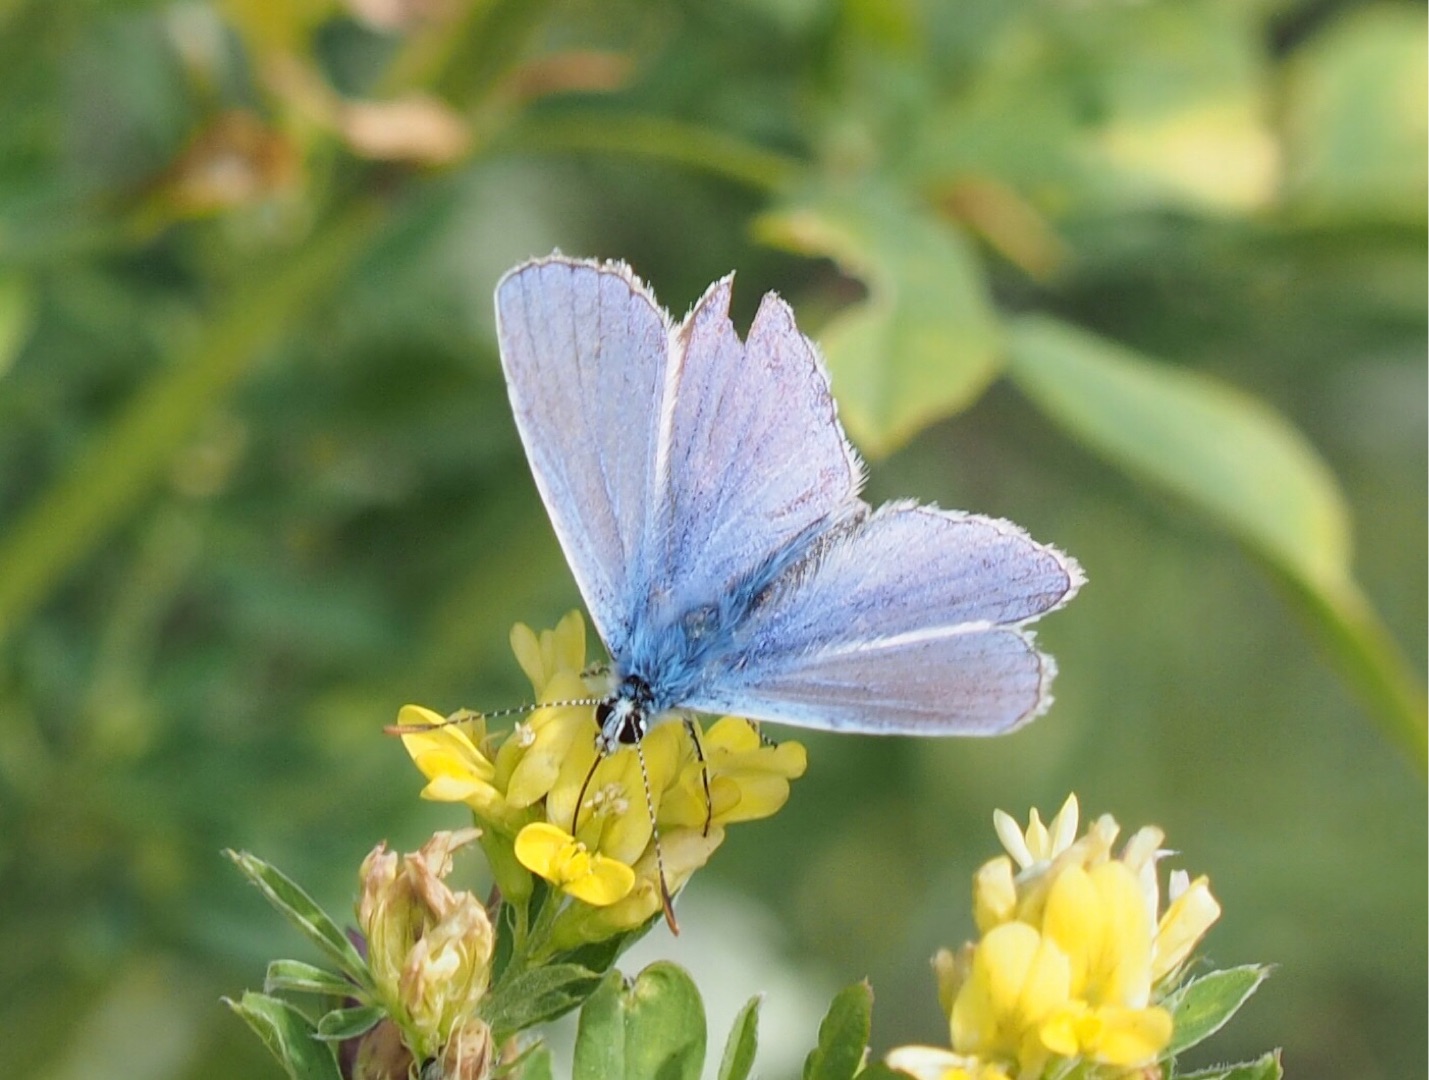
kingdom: Animalia
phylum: Arthropoda
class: Insecta
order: Lepidoptera
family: Lycaenidae
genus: Polyommatus
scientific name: Polyommatus icarus
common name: Almindelig blåfugl
